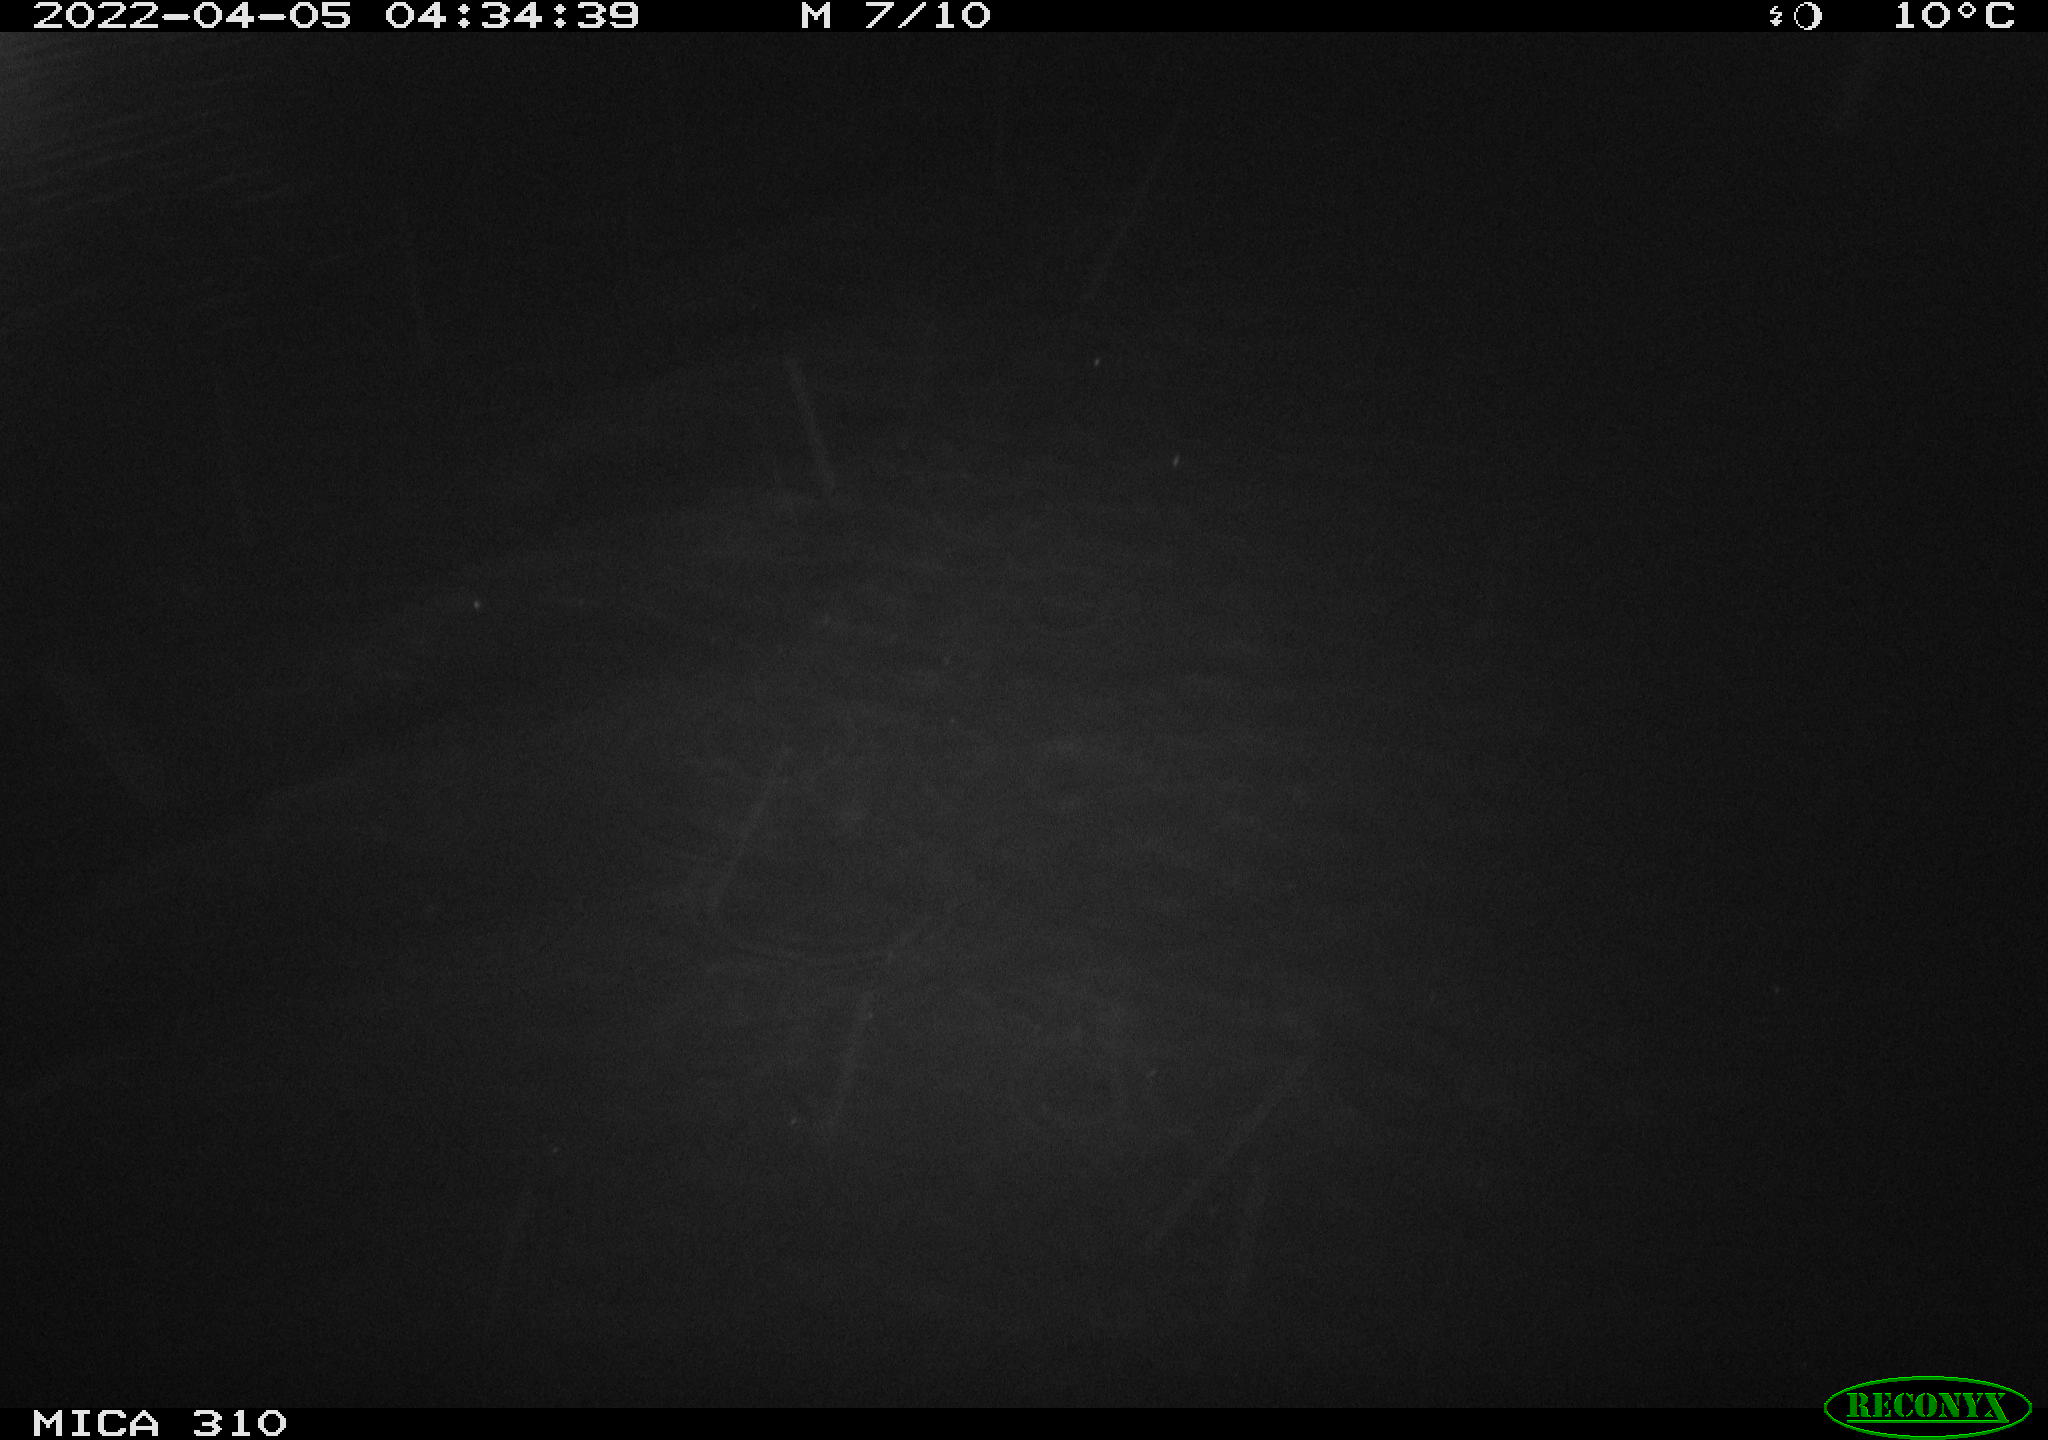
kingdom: Animalia
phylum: Chordata
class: Aves
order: Anseriformes
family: Anatidae
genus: Anas
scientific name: Anas platyrhynchos
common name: Mallard
